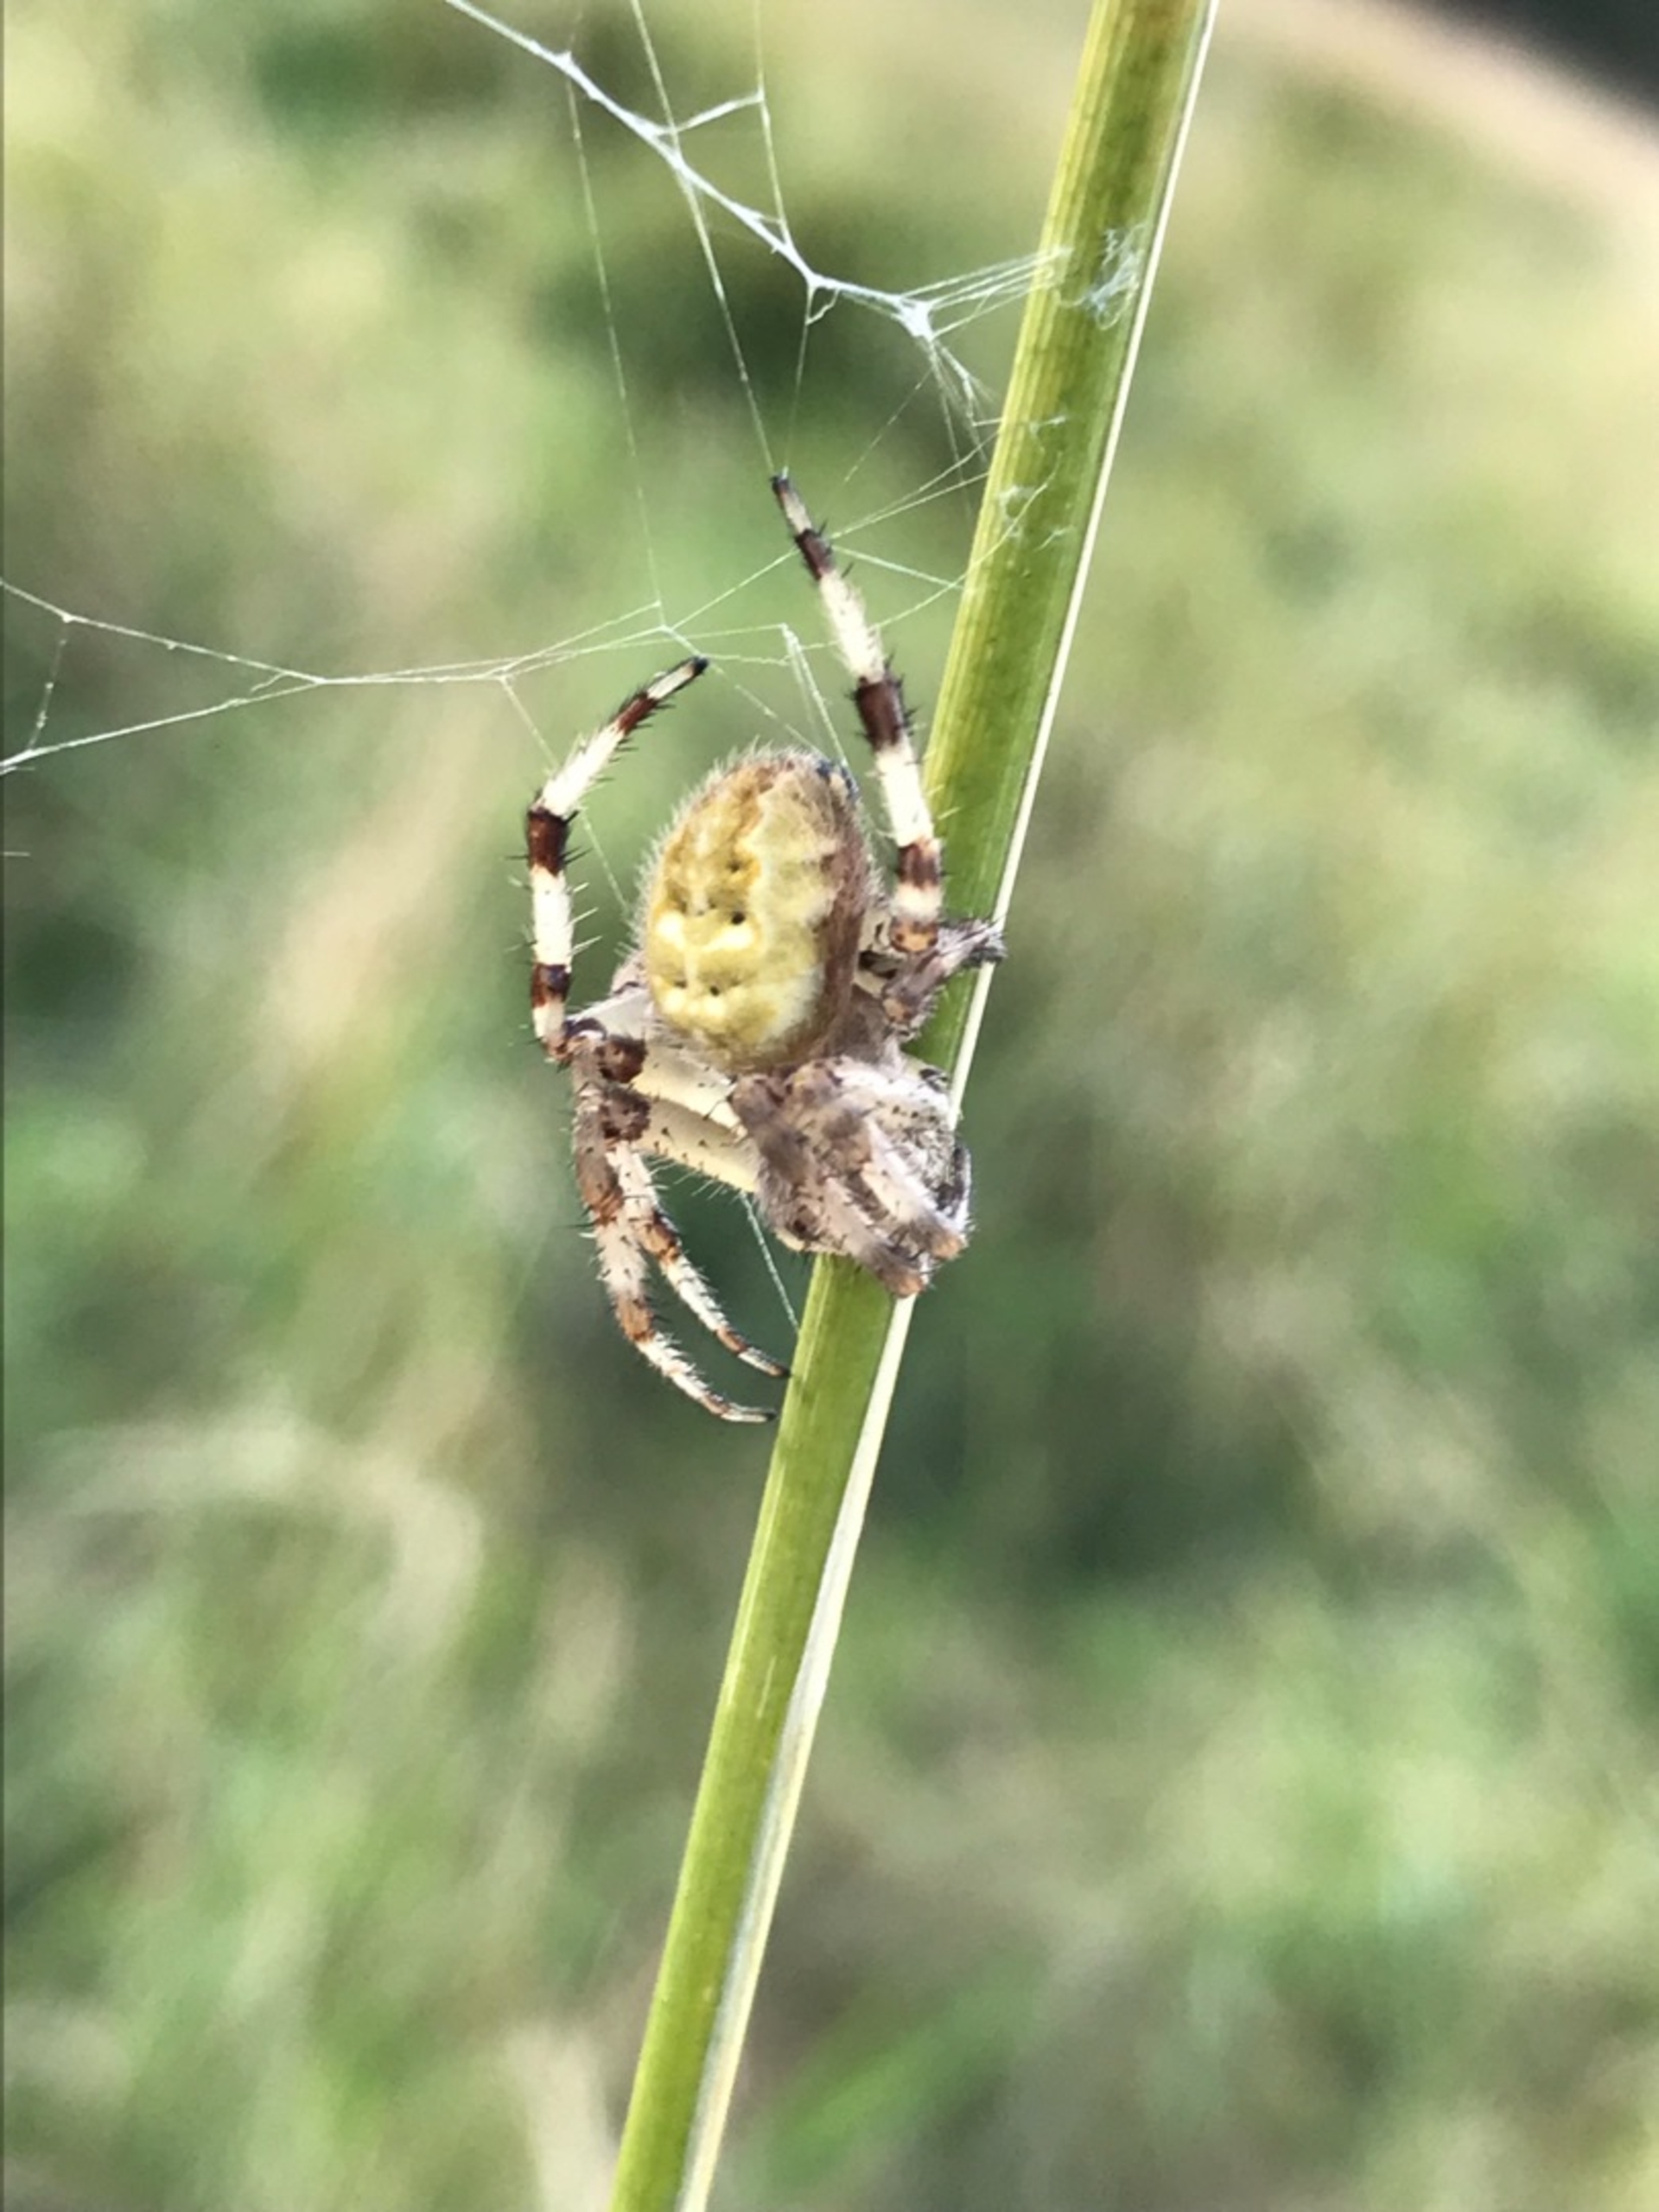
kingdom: Animalia
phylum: Arthropoda
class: Arachnida
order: Araneae
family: Araneidae
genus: Araneus
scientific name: Araneus quadratus
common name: Kvadratedderkop
